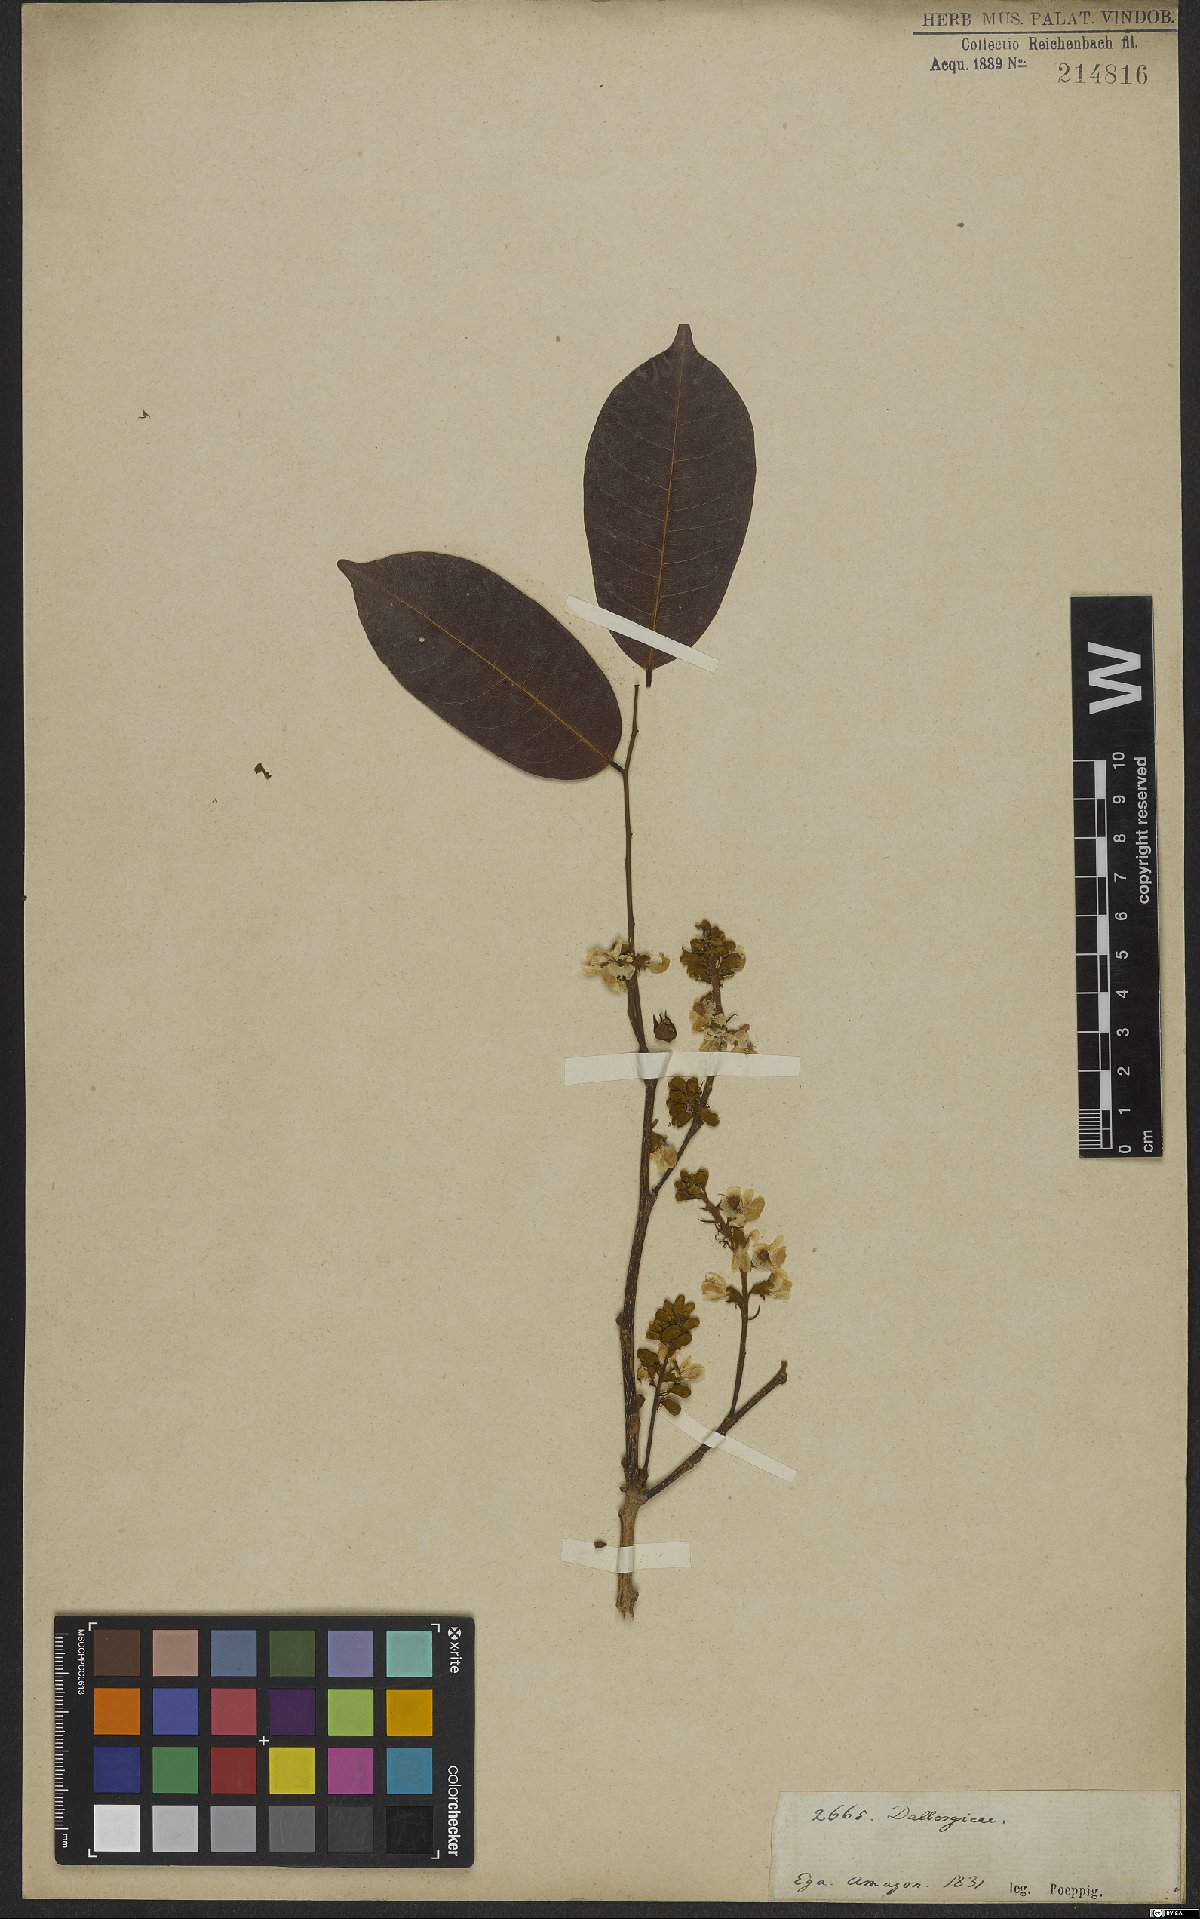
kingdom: Plantae
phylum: Tracheophyta
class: Magnoliopsida
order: Fabales
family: Fabaceae
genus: Monopteryx
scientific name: Monopteryx
